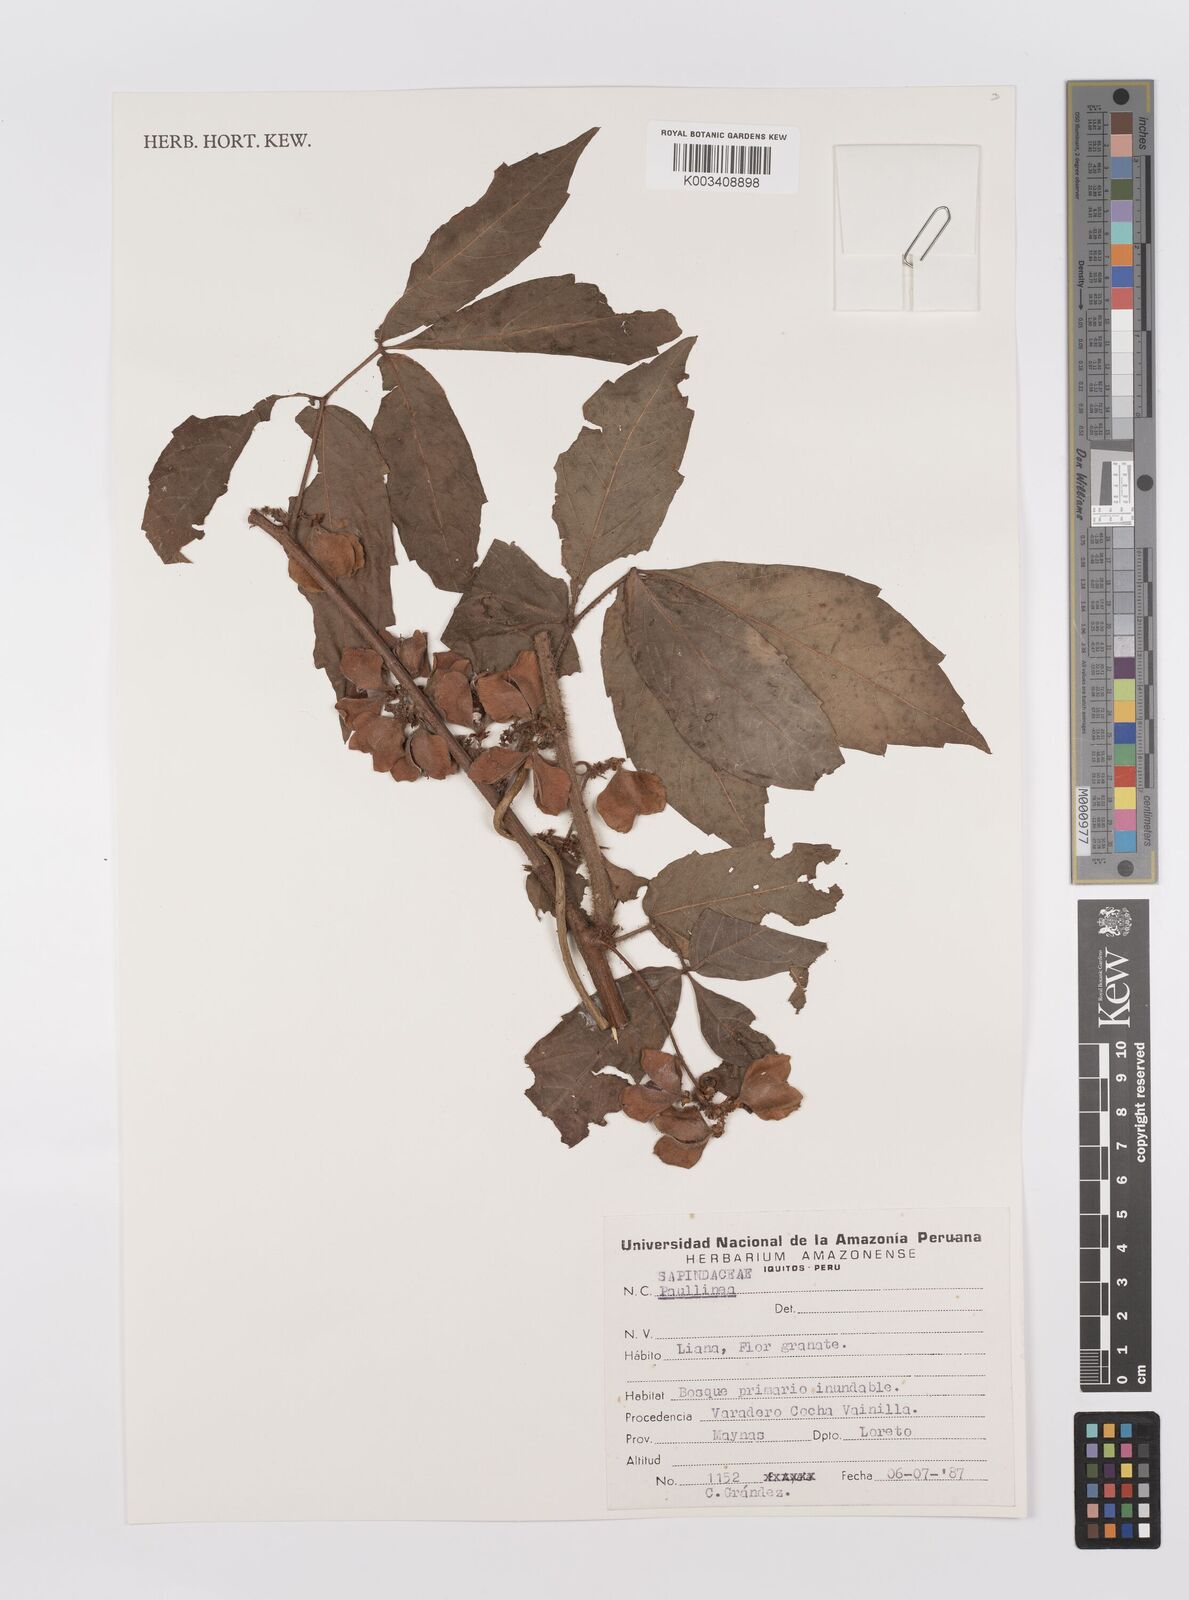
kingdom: Plantae
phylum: Tracheophyta
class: Magnoliopsida
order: Sapindales
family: Sapindaceae
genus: Paullinia
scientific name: Paullinia
